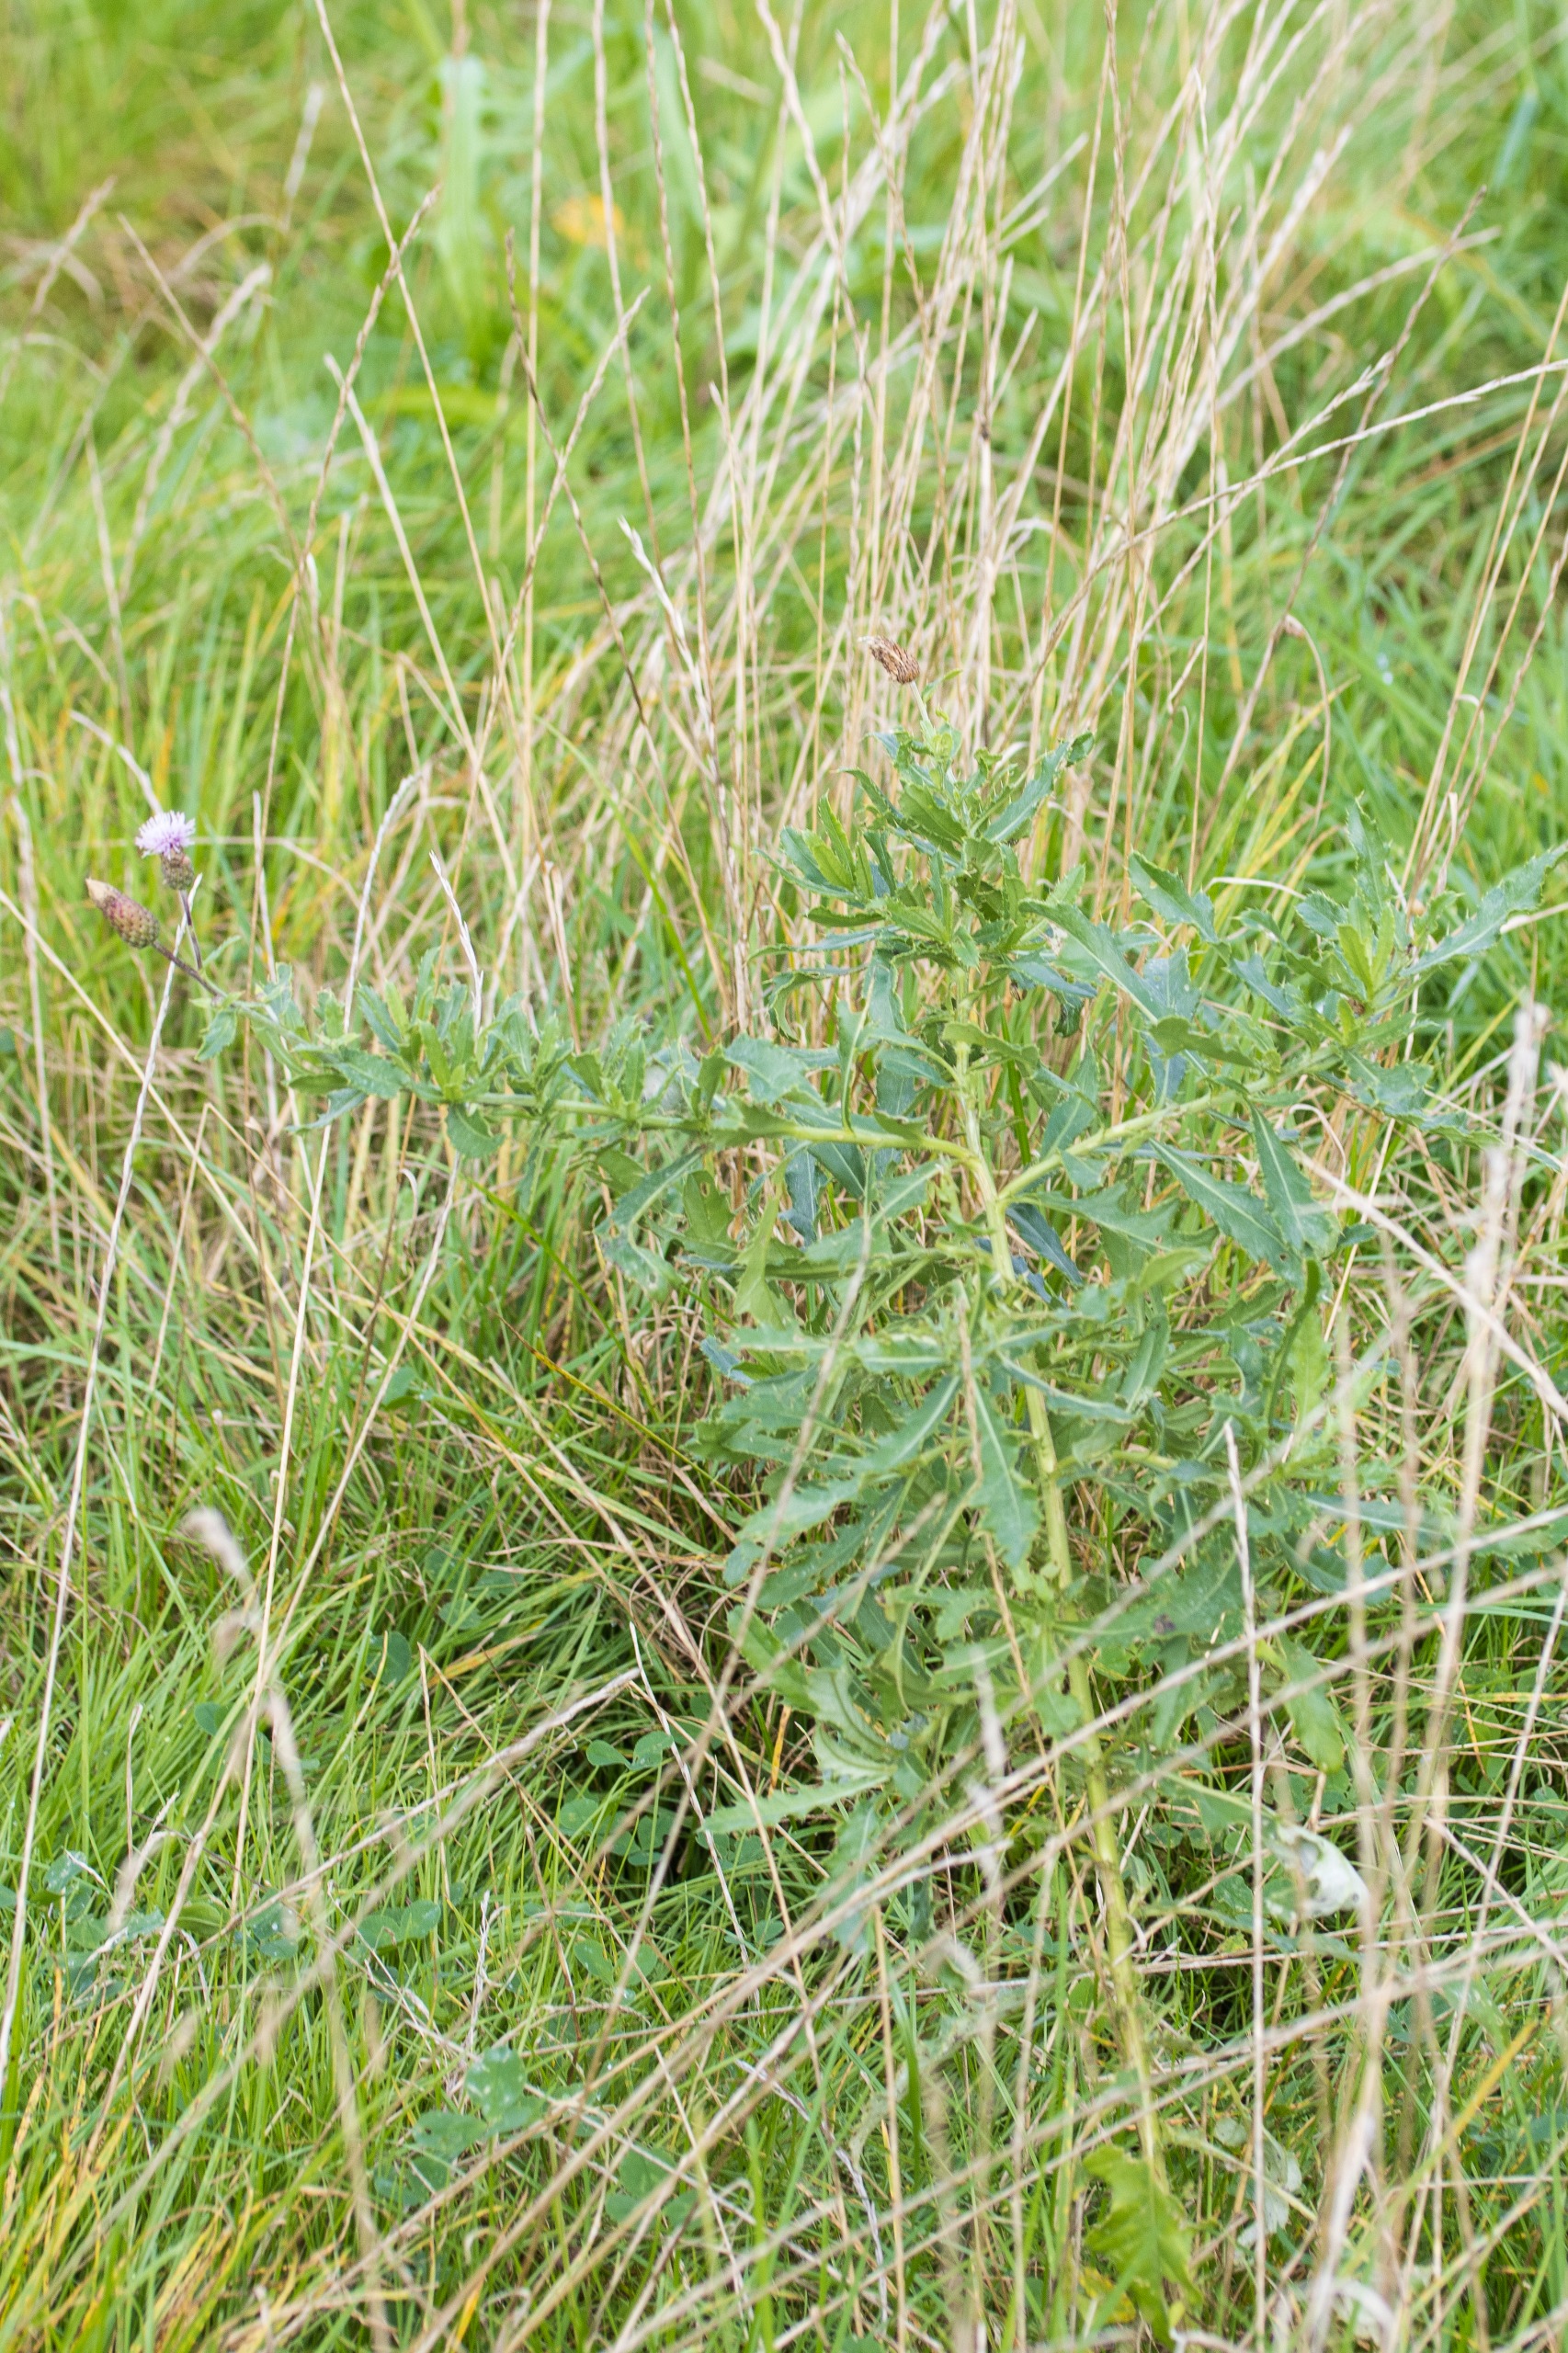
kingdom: Plantae
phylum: Tracheophyta
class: Magnoliopsida
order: Asterales
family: Asteraceae
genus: Cirsium
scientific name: Cirsium arvense
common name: Ager-tidsel
